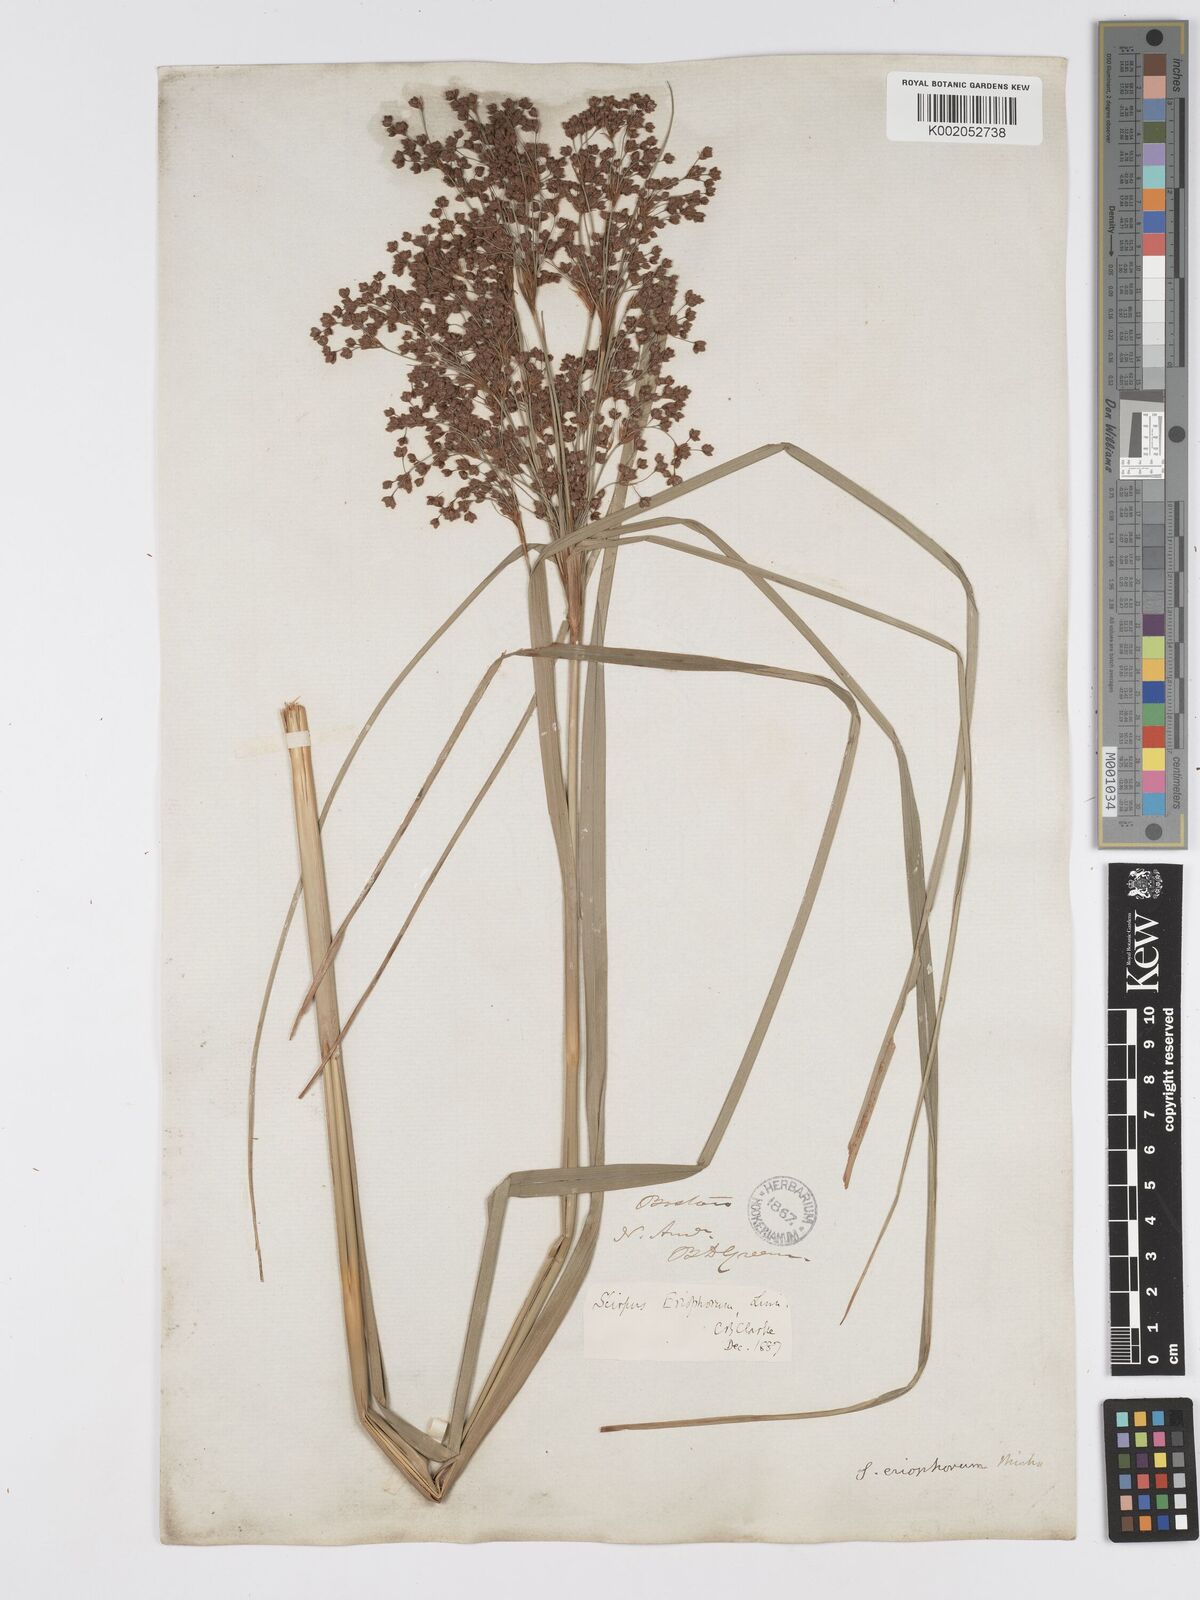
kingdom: Plantae
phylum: Tracheophyta
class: Liliopsida
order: Poales
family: Cyperaceae
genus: Scirpus
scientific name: Scirpus cyperinus
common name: Black-sheathed bulrush
